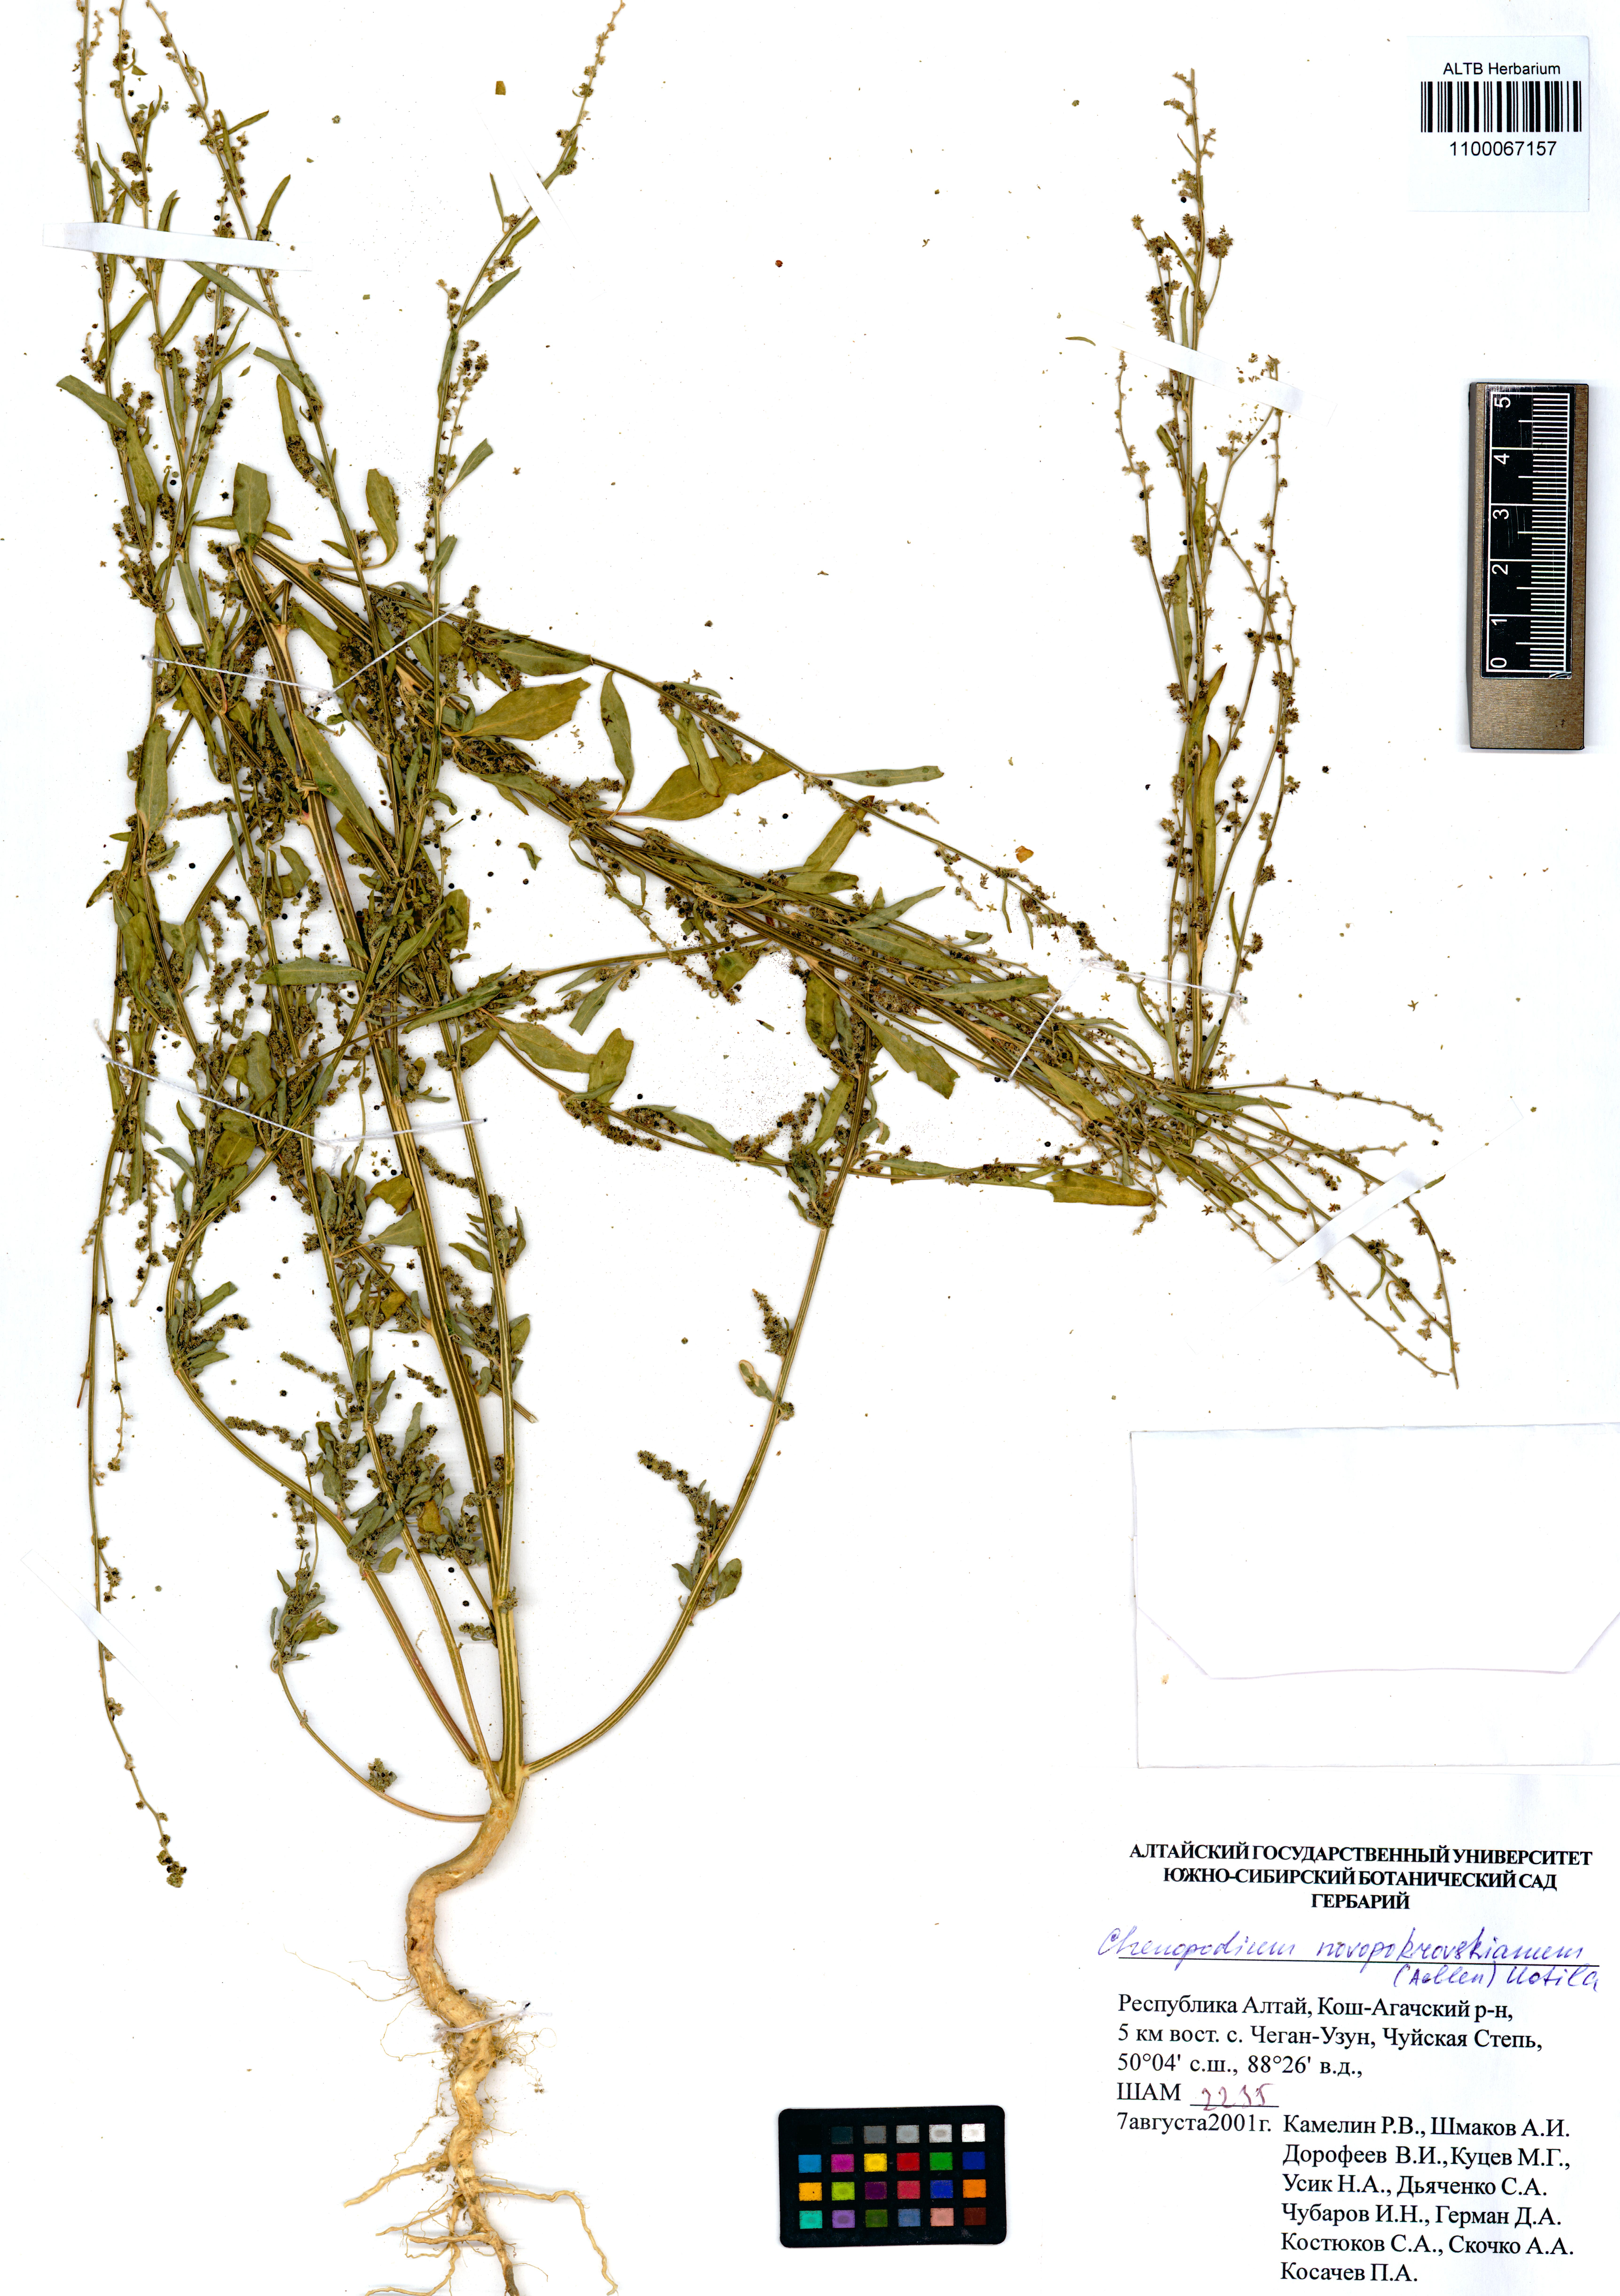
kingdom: Plantae
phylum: Tracheophyta
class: Magnoliopsida
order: Caryophyllales
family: Amaranthaceae
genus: Chenopodium
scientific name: Chenopodium novopokrovskyanum
